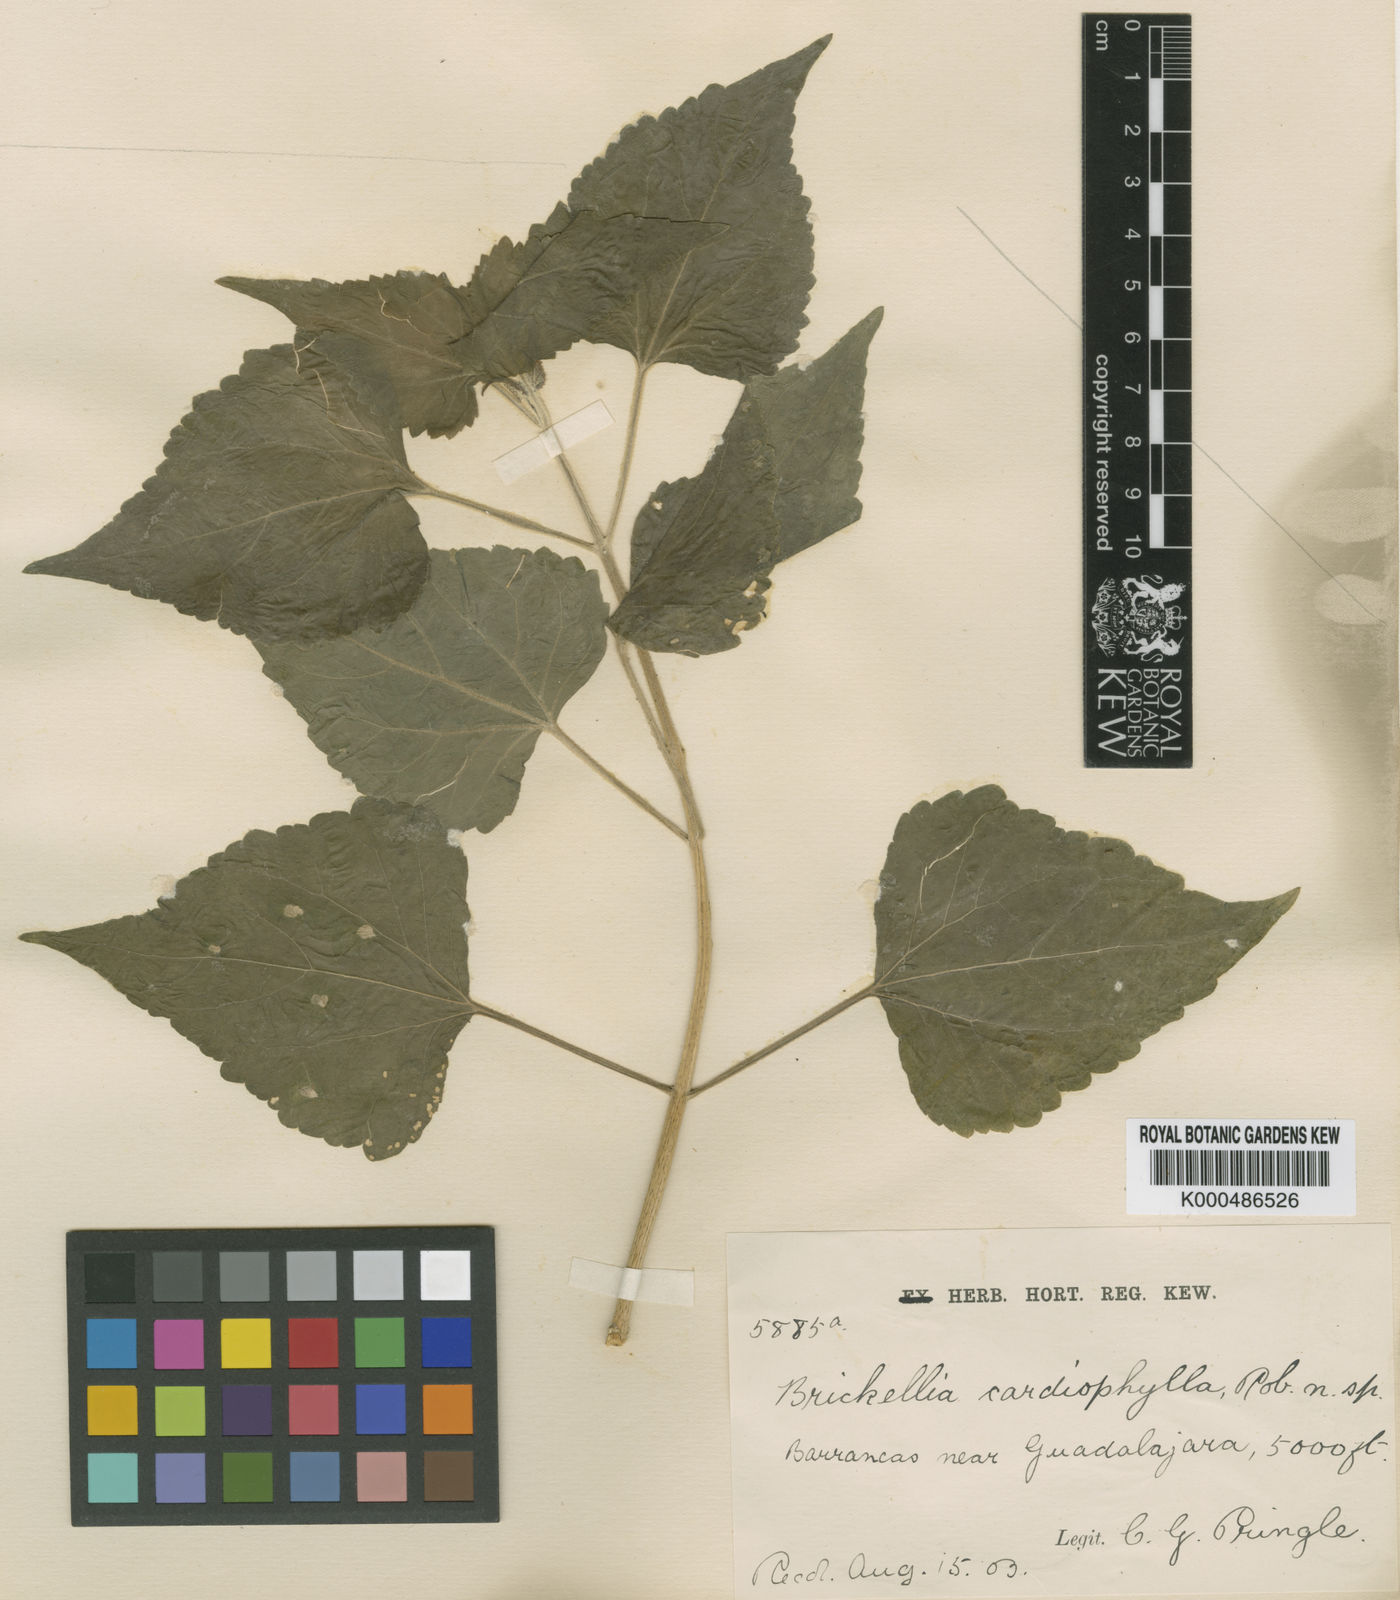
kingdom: Plantae
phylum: Tracheophyta
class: Magnoliopsida
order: Asterales
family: Asteraceae
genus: Brickellia
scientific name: Brickellia cardiophylla
